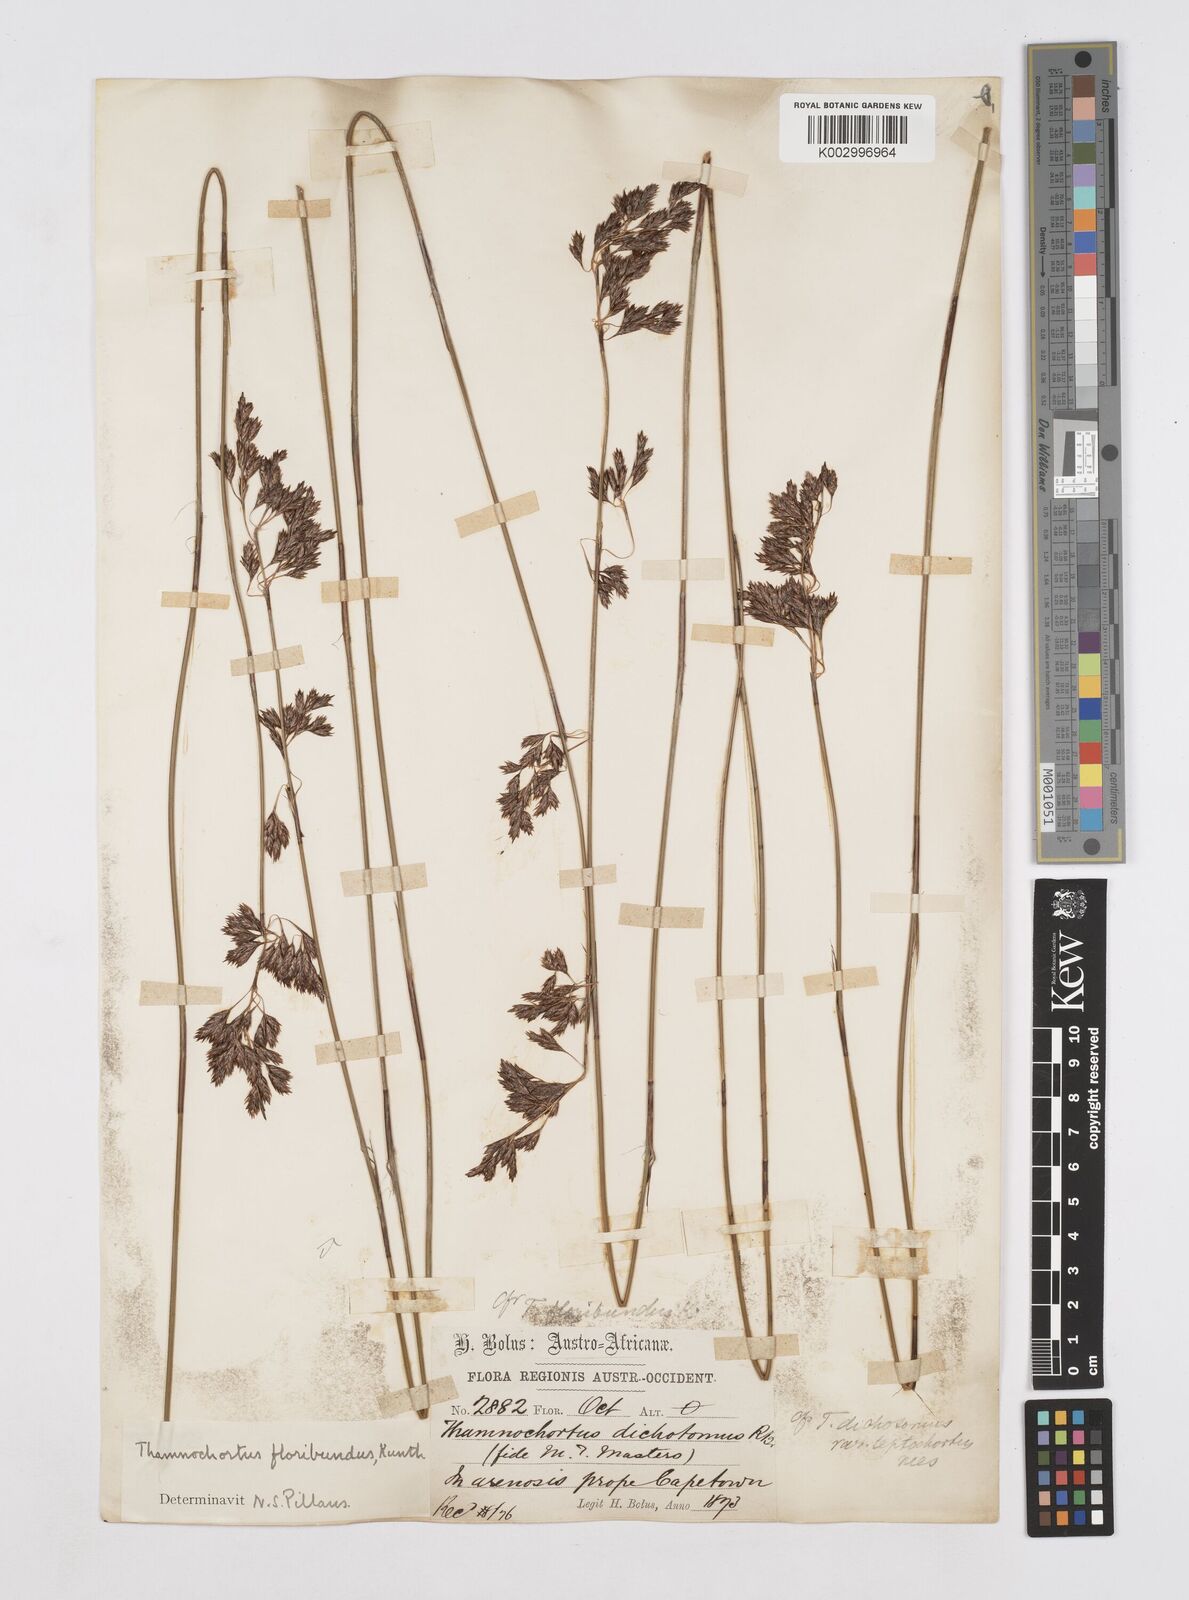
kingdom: Plantae
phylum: Tracheophyta
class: Liliopsida
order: Poales
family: Restionaceae
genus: Thamnochortus
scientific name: Thamnochortus erectus
